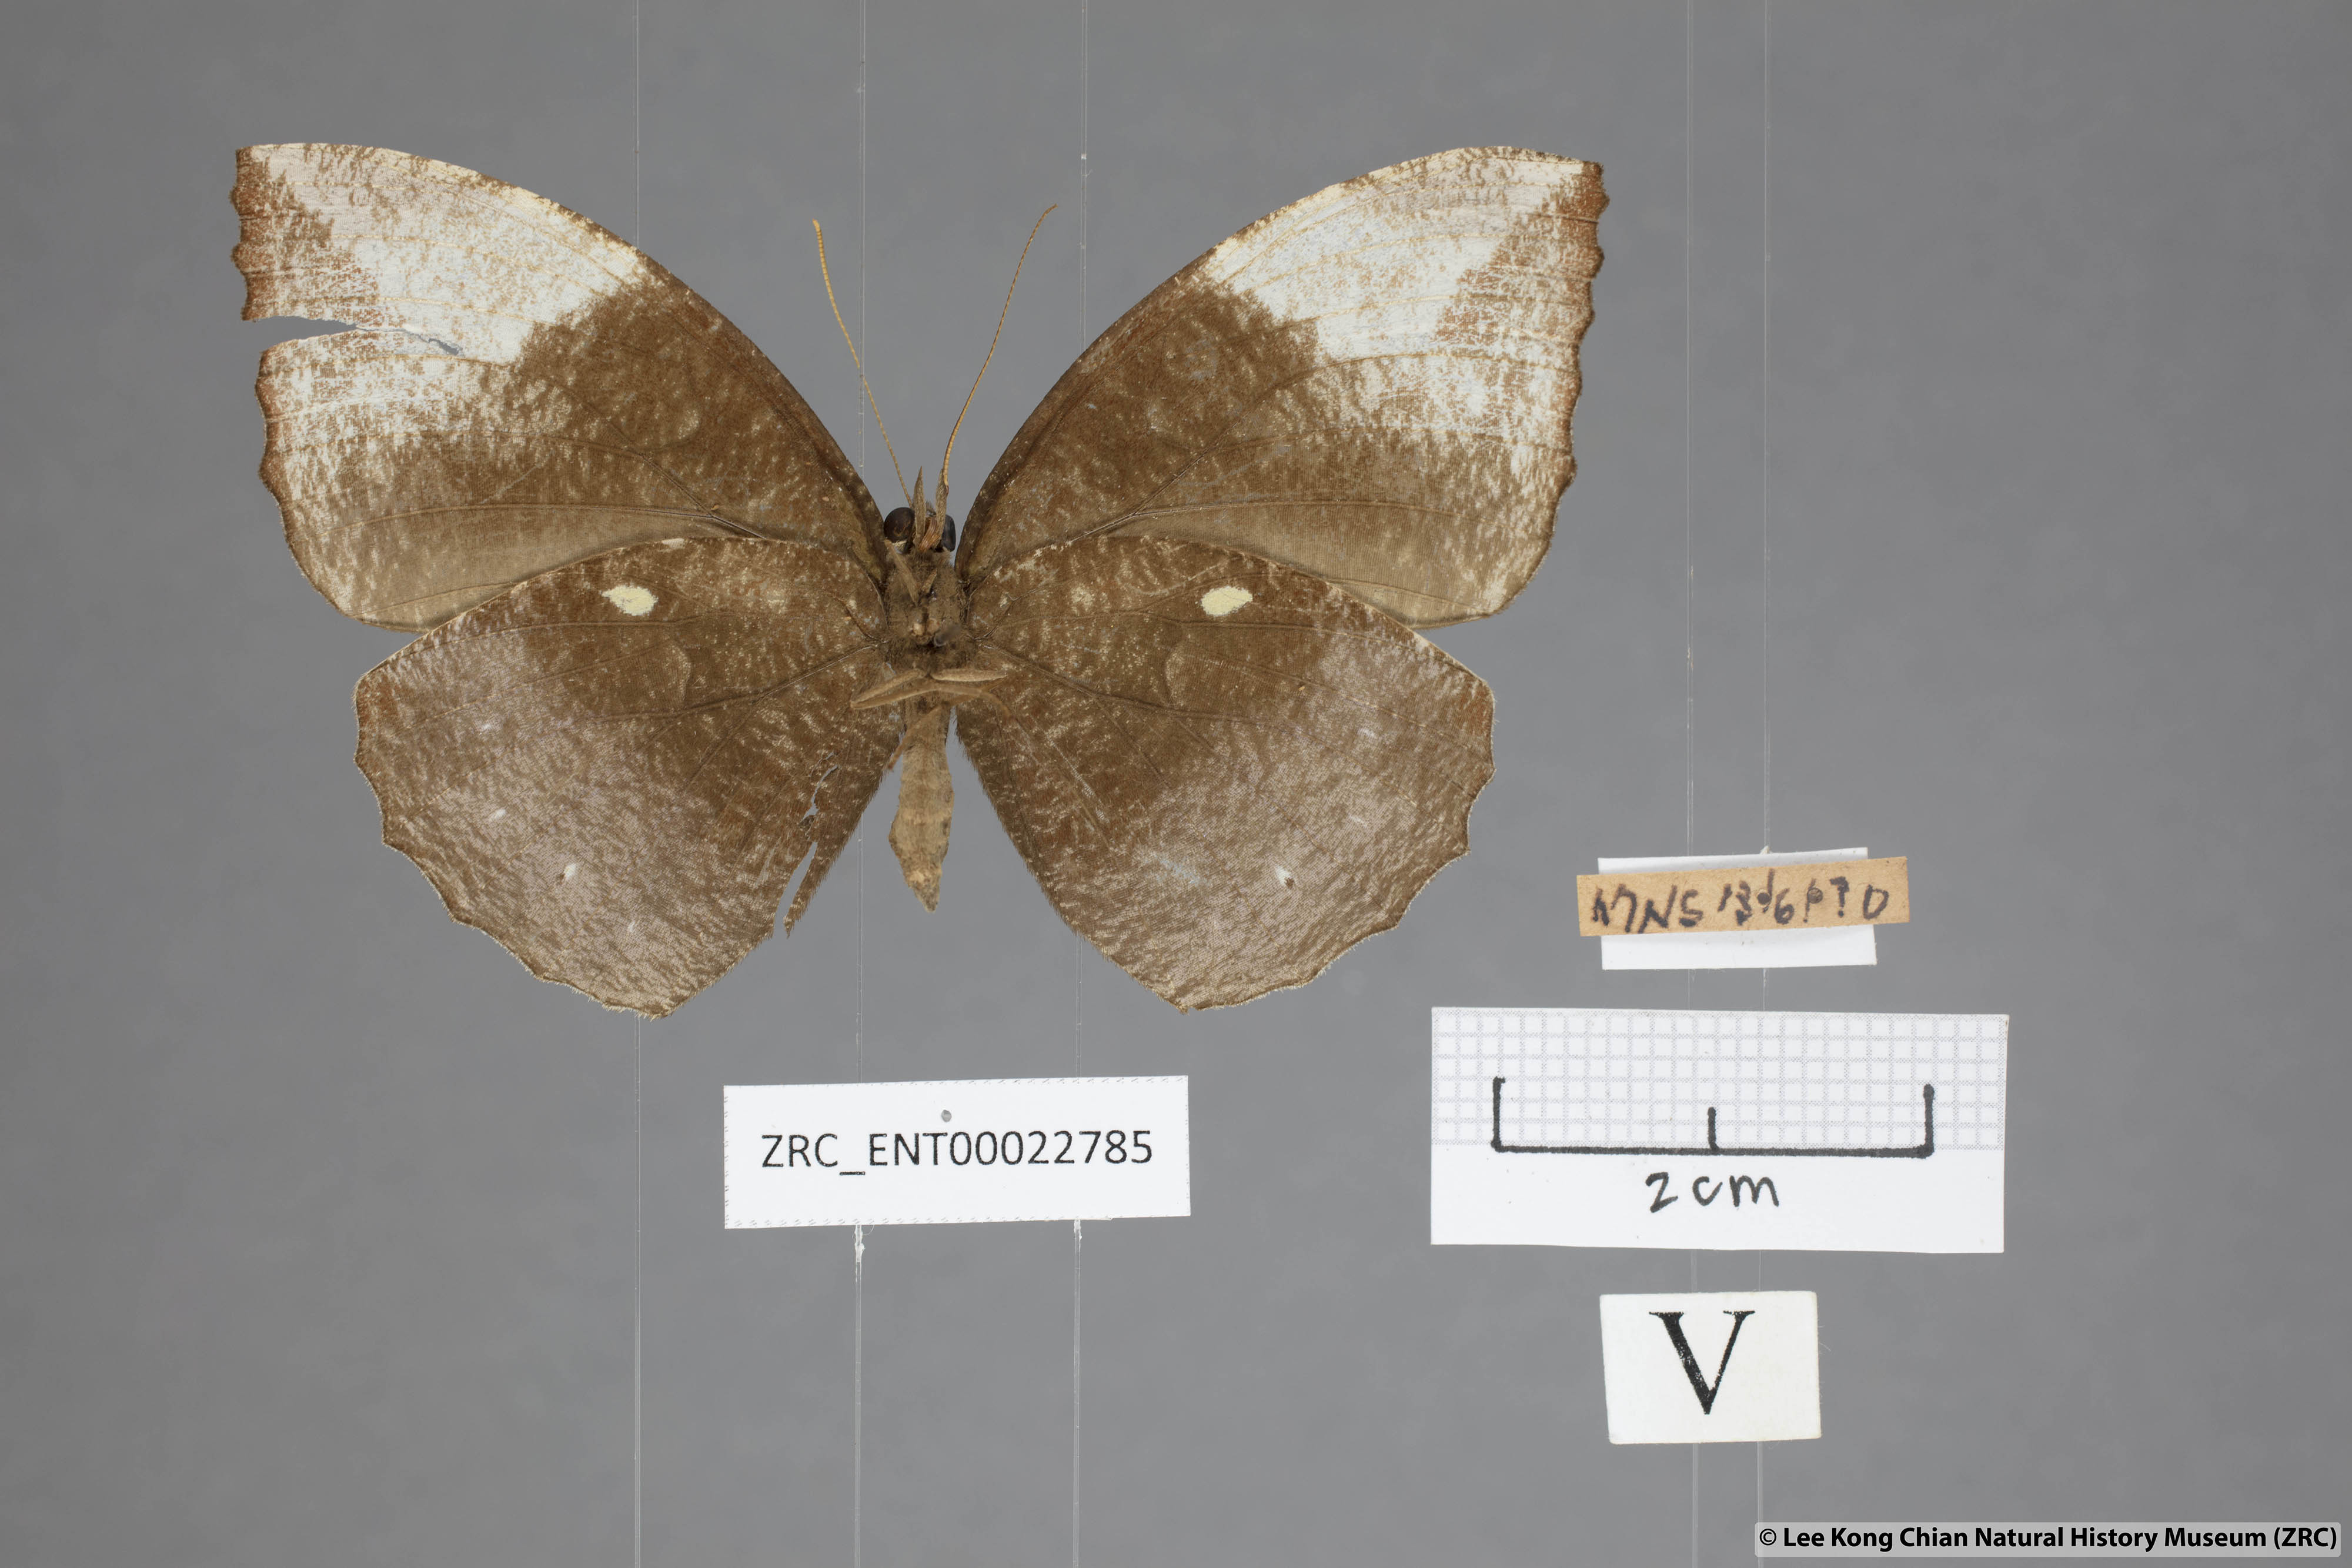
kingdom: Animalia
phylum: Arthropoda
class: Insecta
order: Lepidoptera
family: Nymphalidae
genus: Elymnias
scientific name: Elymnias penanga
